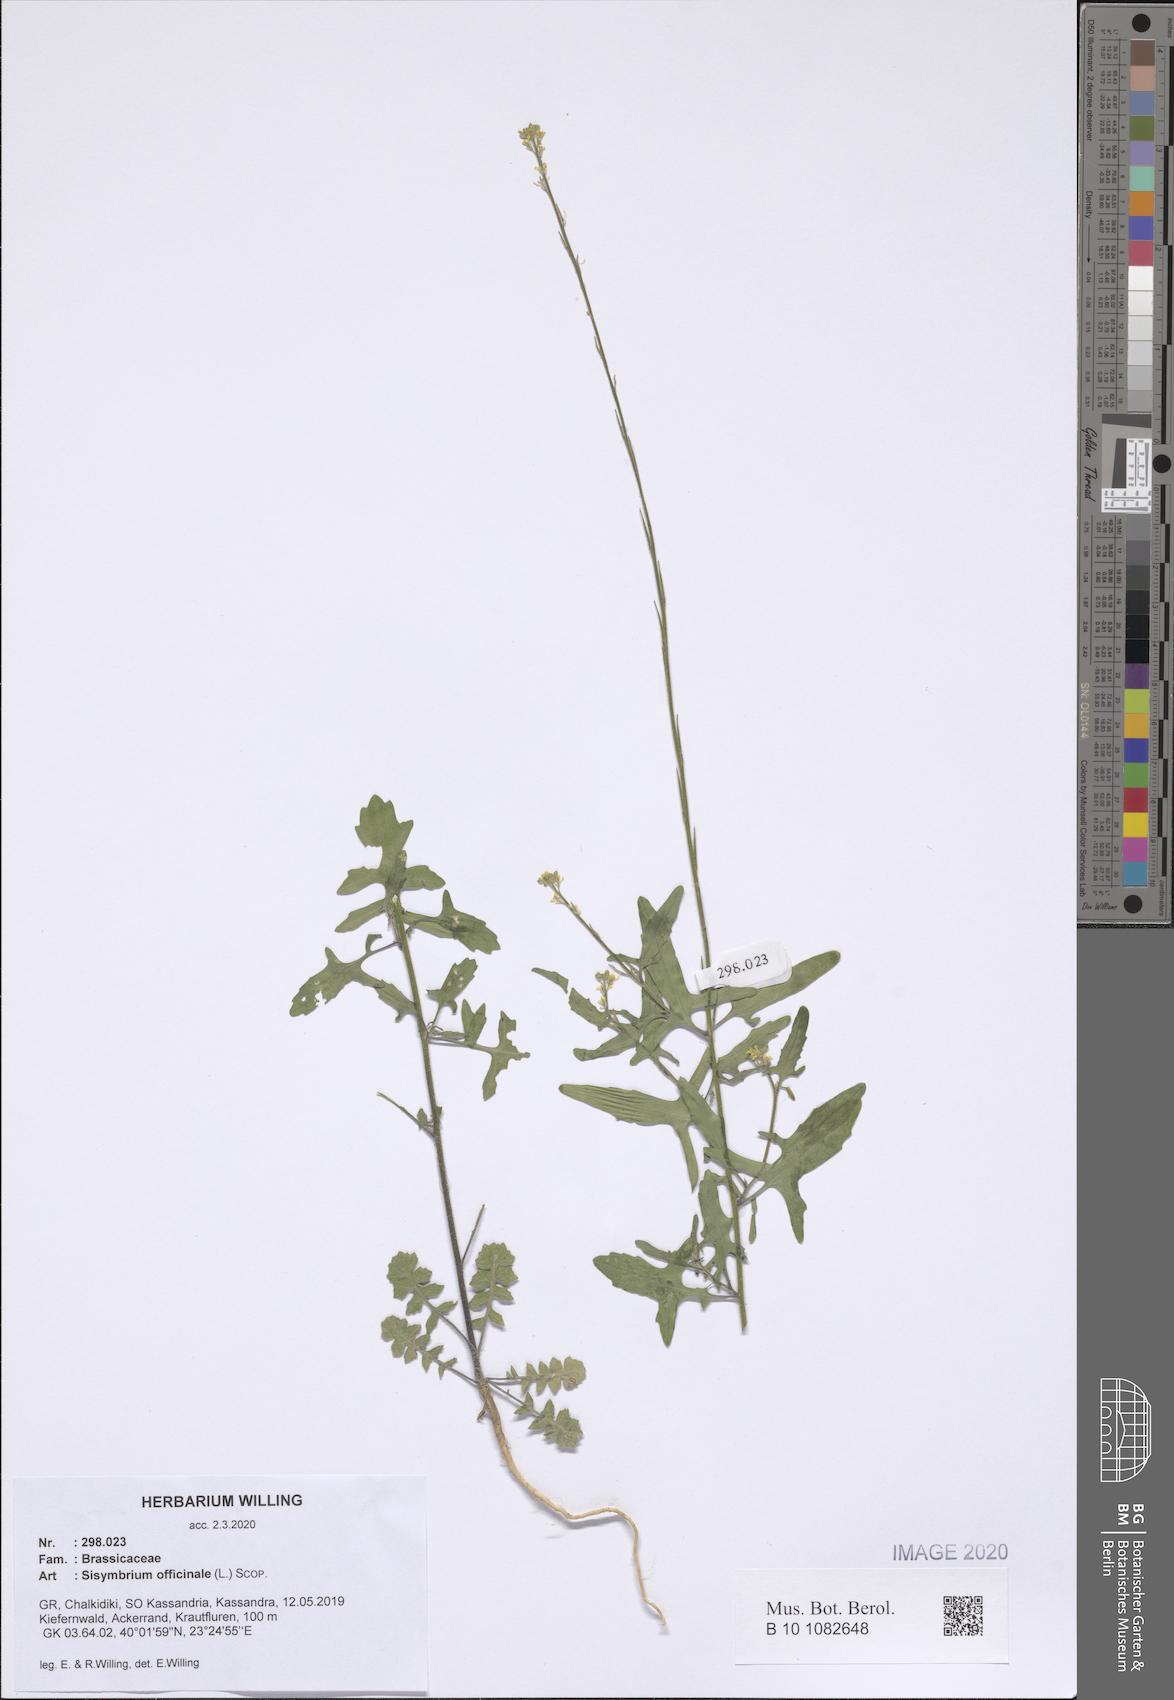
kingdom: Plantae
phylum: Tracheophyta
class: Magnoliopsida
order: Brassicales
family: Brassicaceae
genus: Sisymbrium
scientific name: Sisymbrium officinale
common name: Hedge mustard
